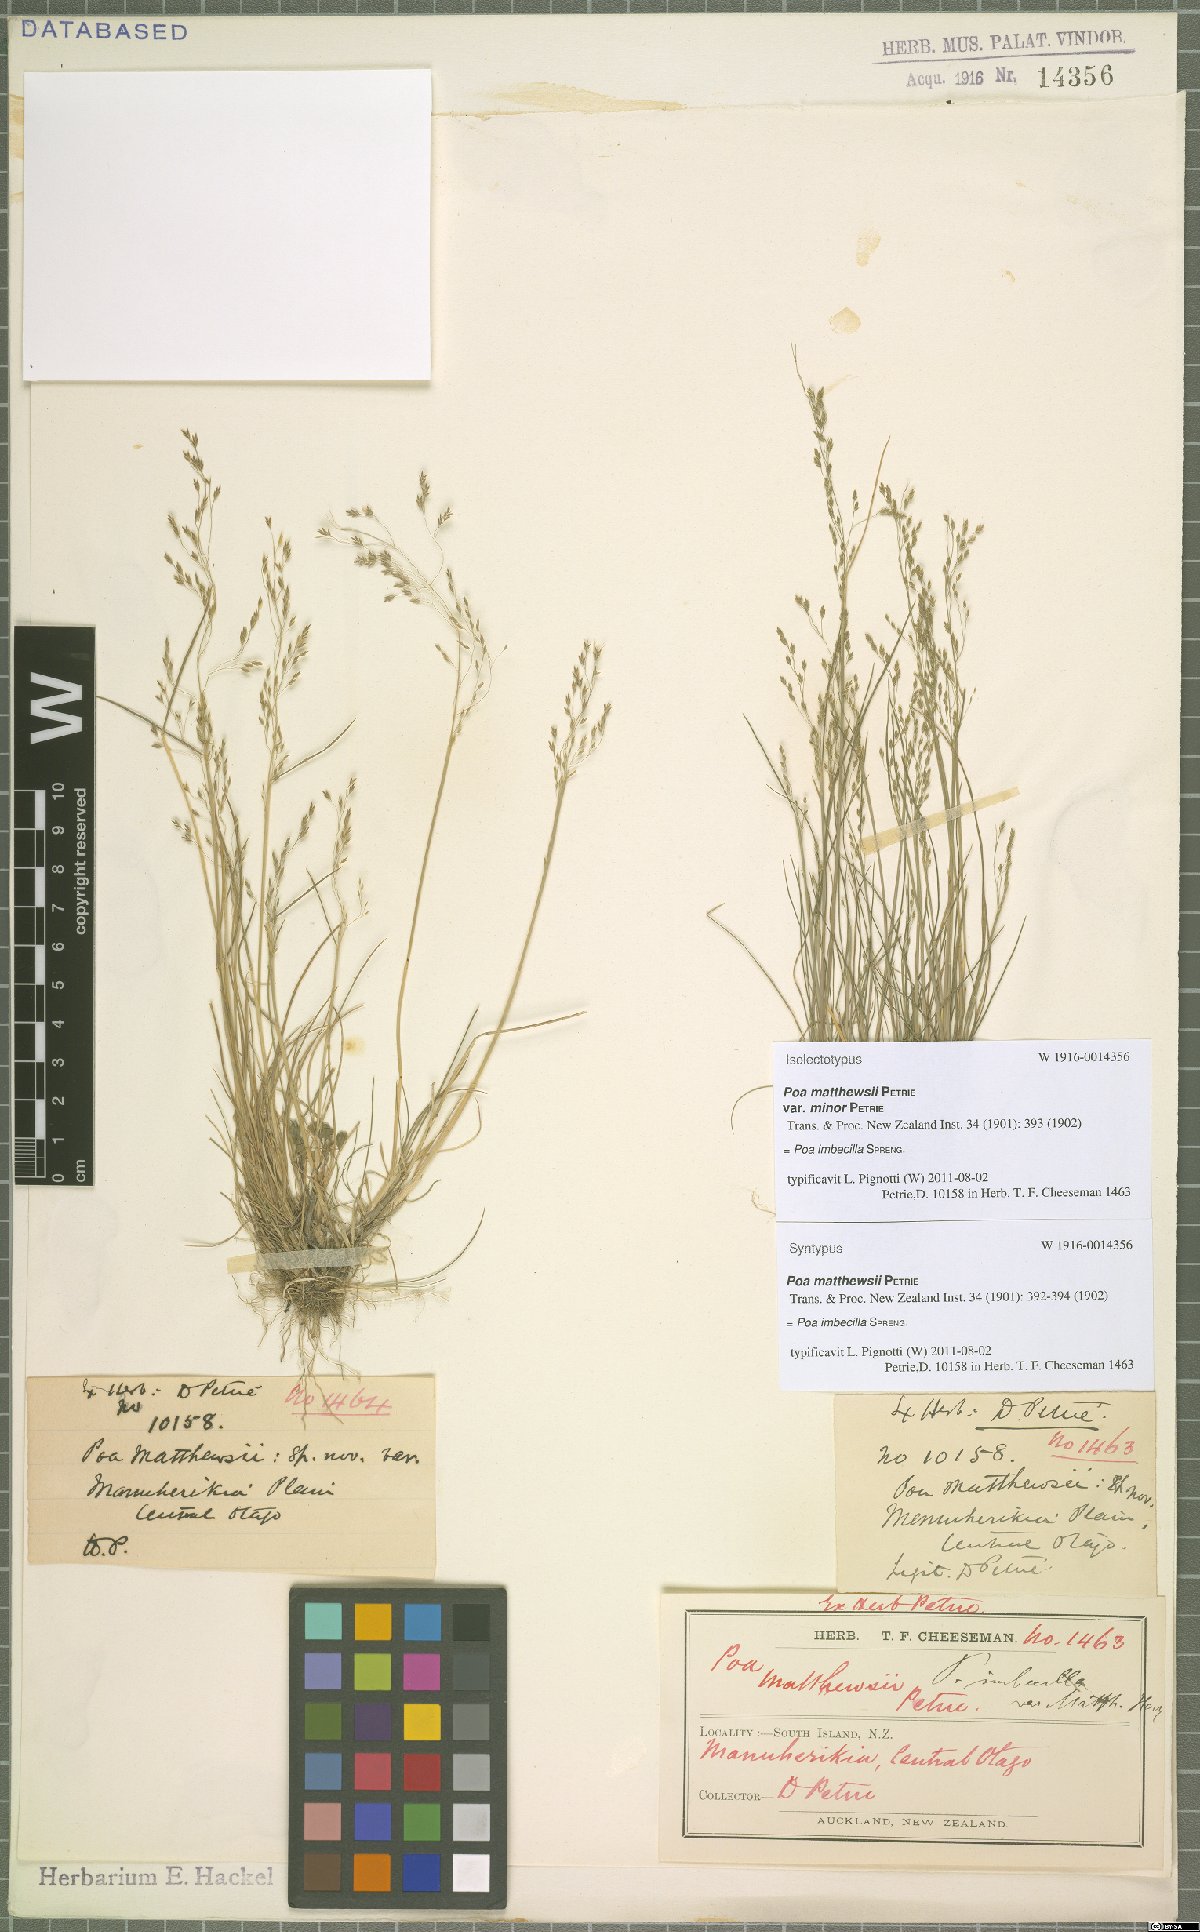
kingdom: Plantae
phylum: Tracheophyta
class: Liliopsida
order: Poales
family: Poaceae
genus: Poa
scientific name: Poa imbecilla
